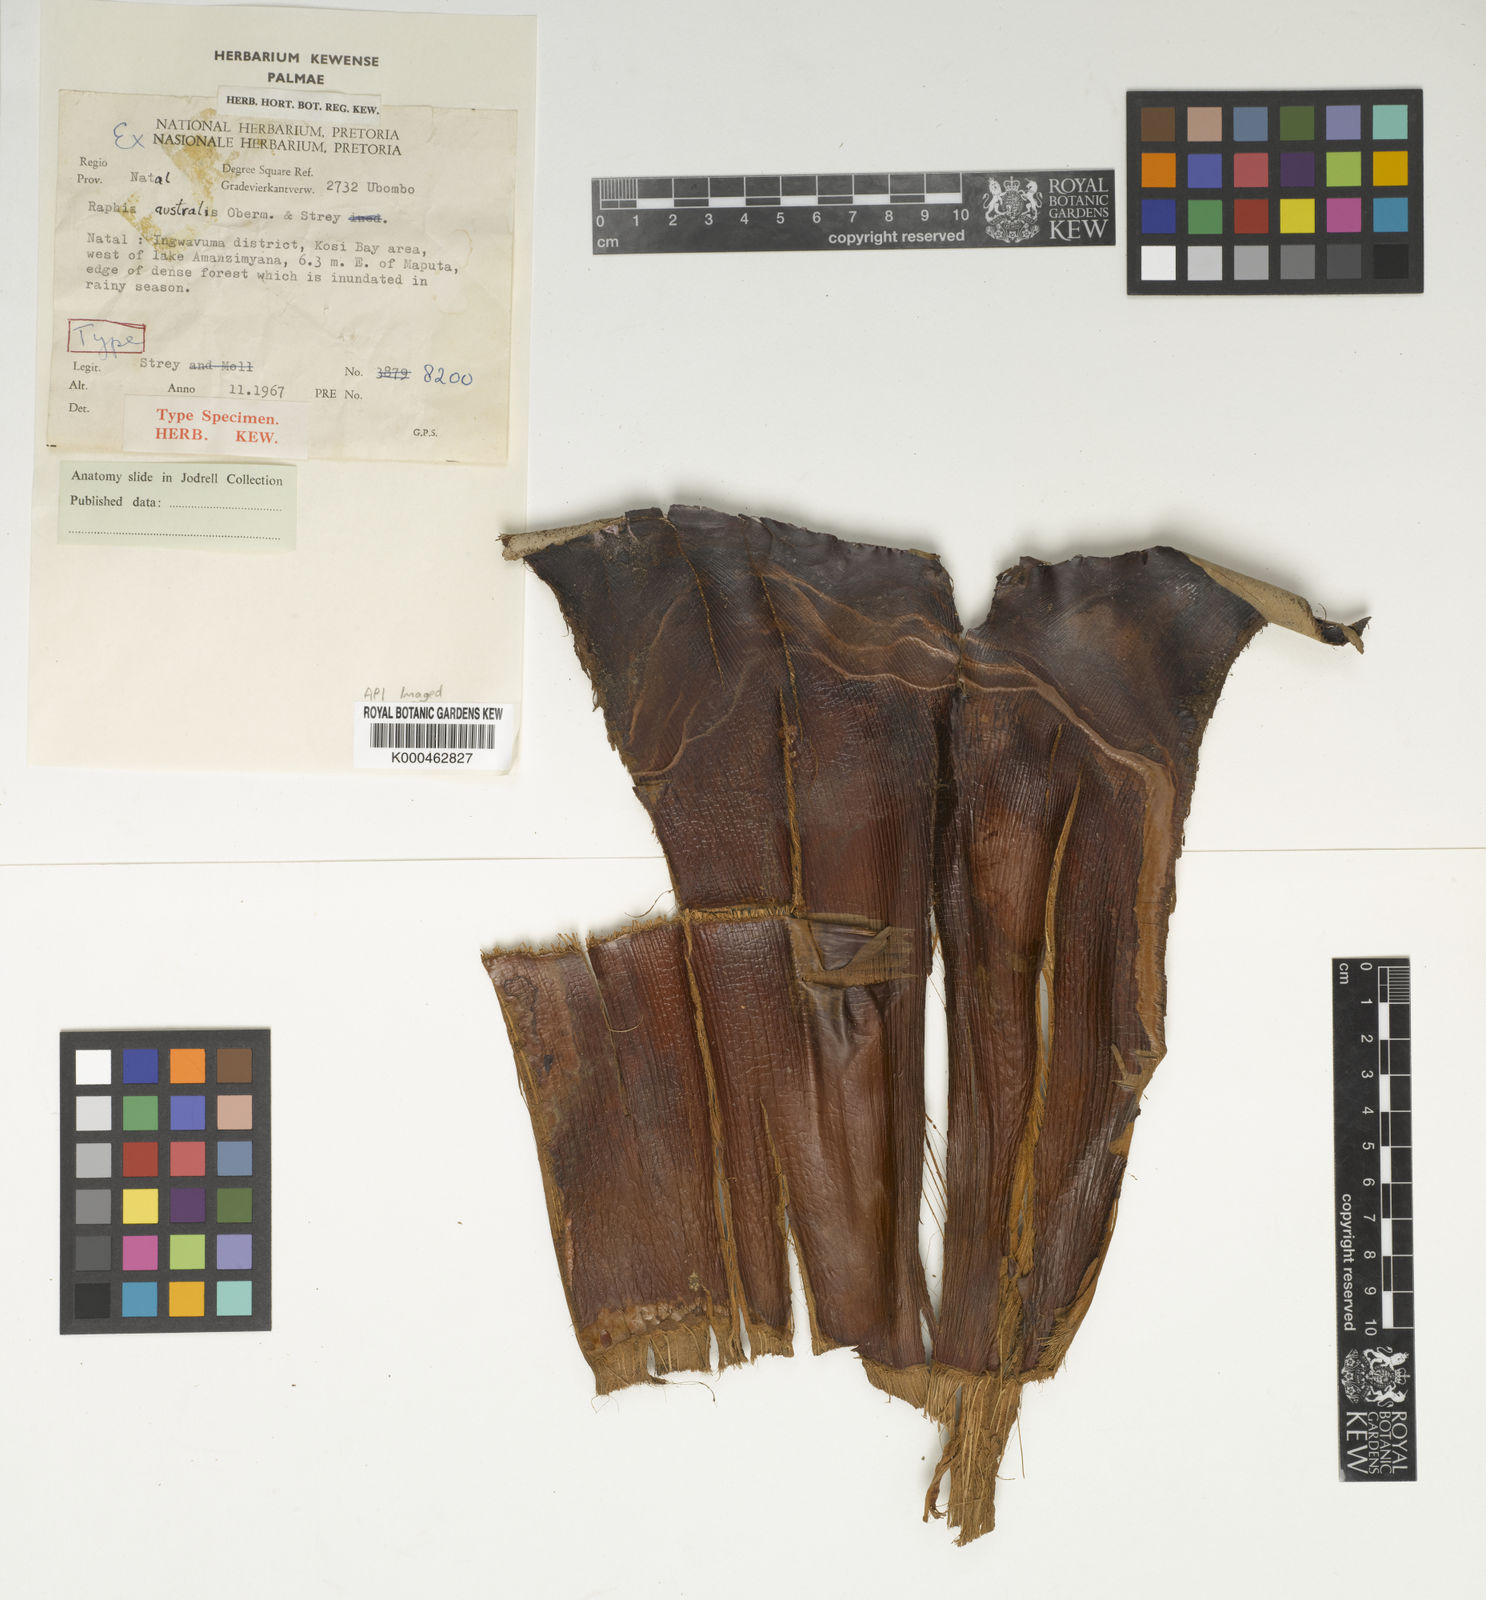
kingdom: Plantae
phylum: Tracheophyta
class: Liliopsida
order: Arecales
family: Arecaceae
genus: Raphia
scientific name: Raphia australis
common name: Giant palm
